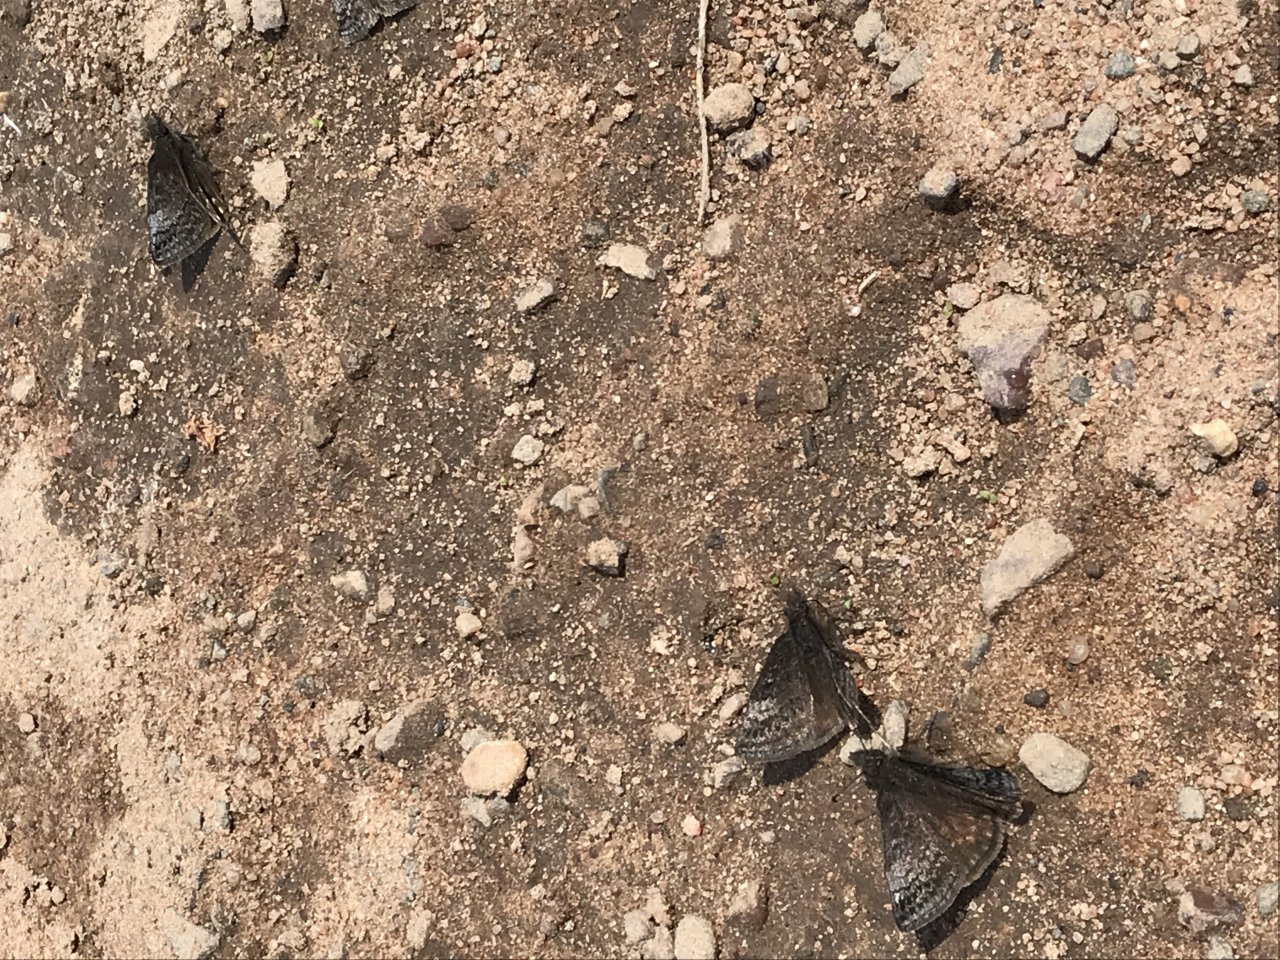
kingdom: Animalia
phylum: Arthropoda
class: Insecta
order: Lepidoptera
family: Hesperiidae
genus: Erynnis
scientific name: Erynnis icelus
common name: Dreamy Duskywing
